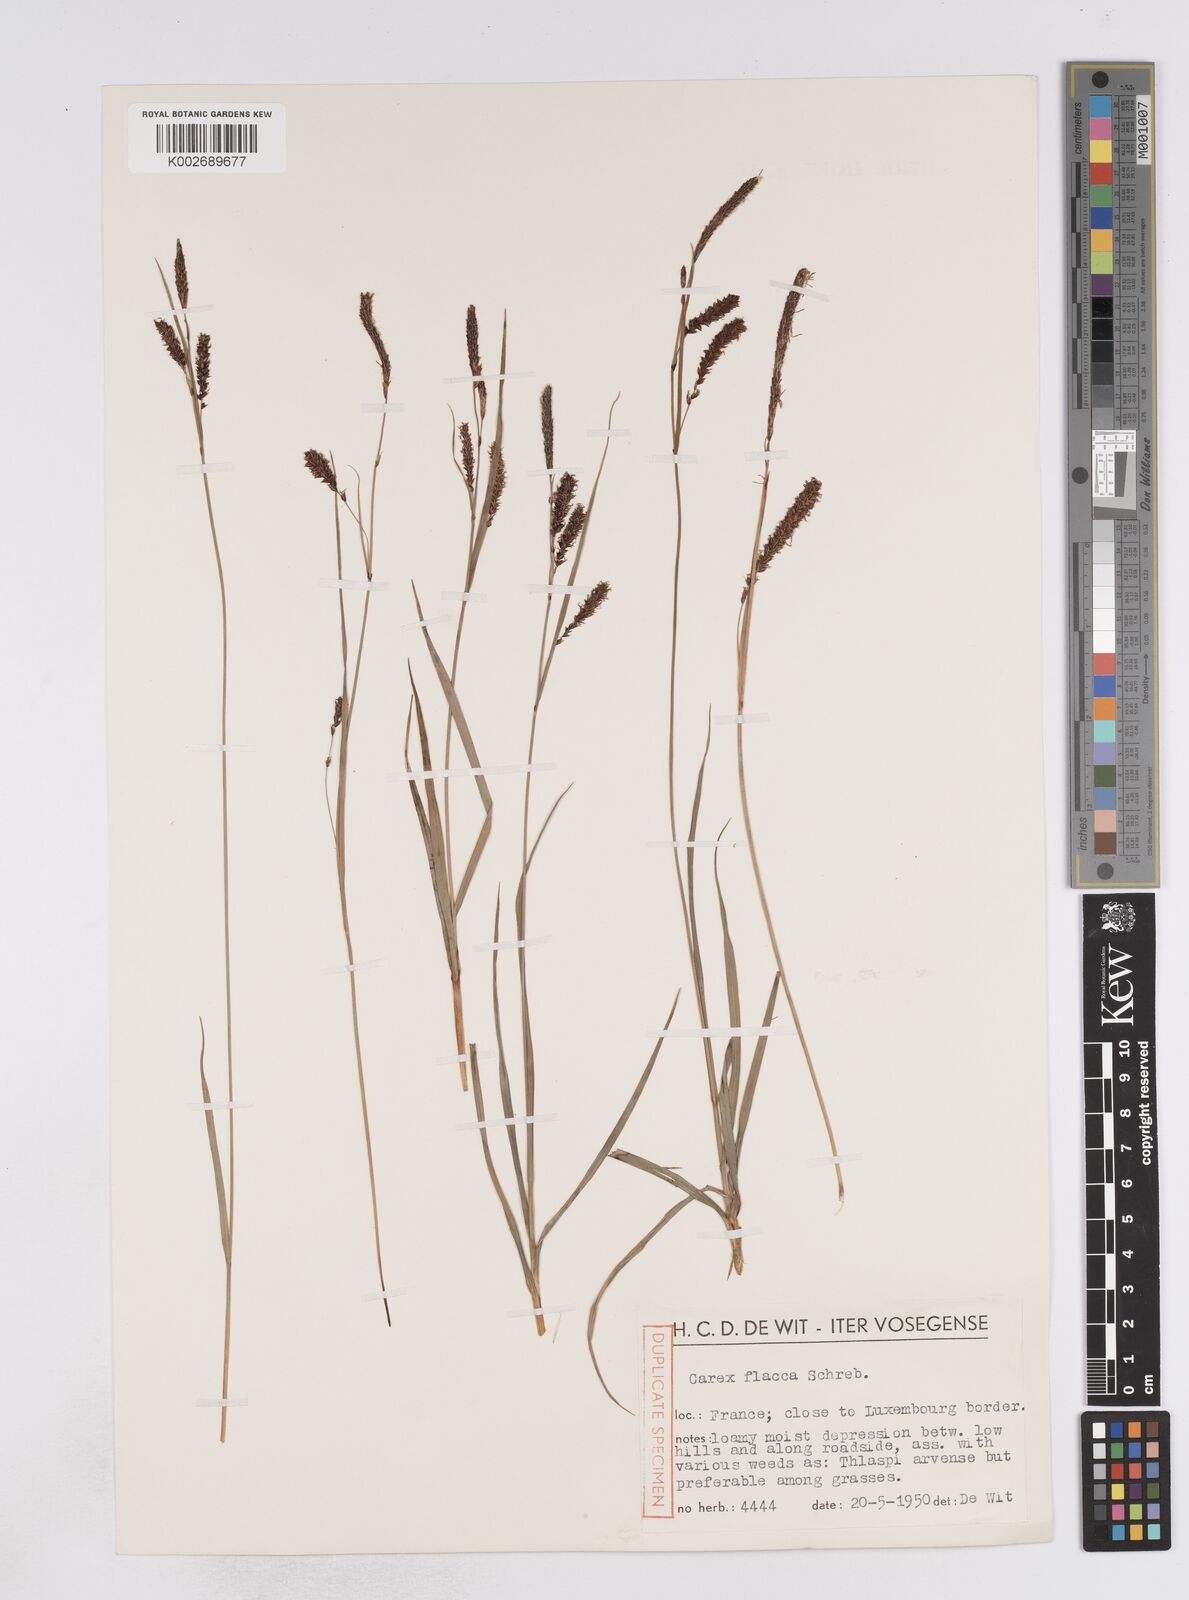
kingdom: Plantae
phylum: Tracheophyta
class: Liliopsida
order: Poales
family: Cyperaceae
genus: Carex
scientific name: Carex flacca
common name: Glaucous sedge
